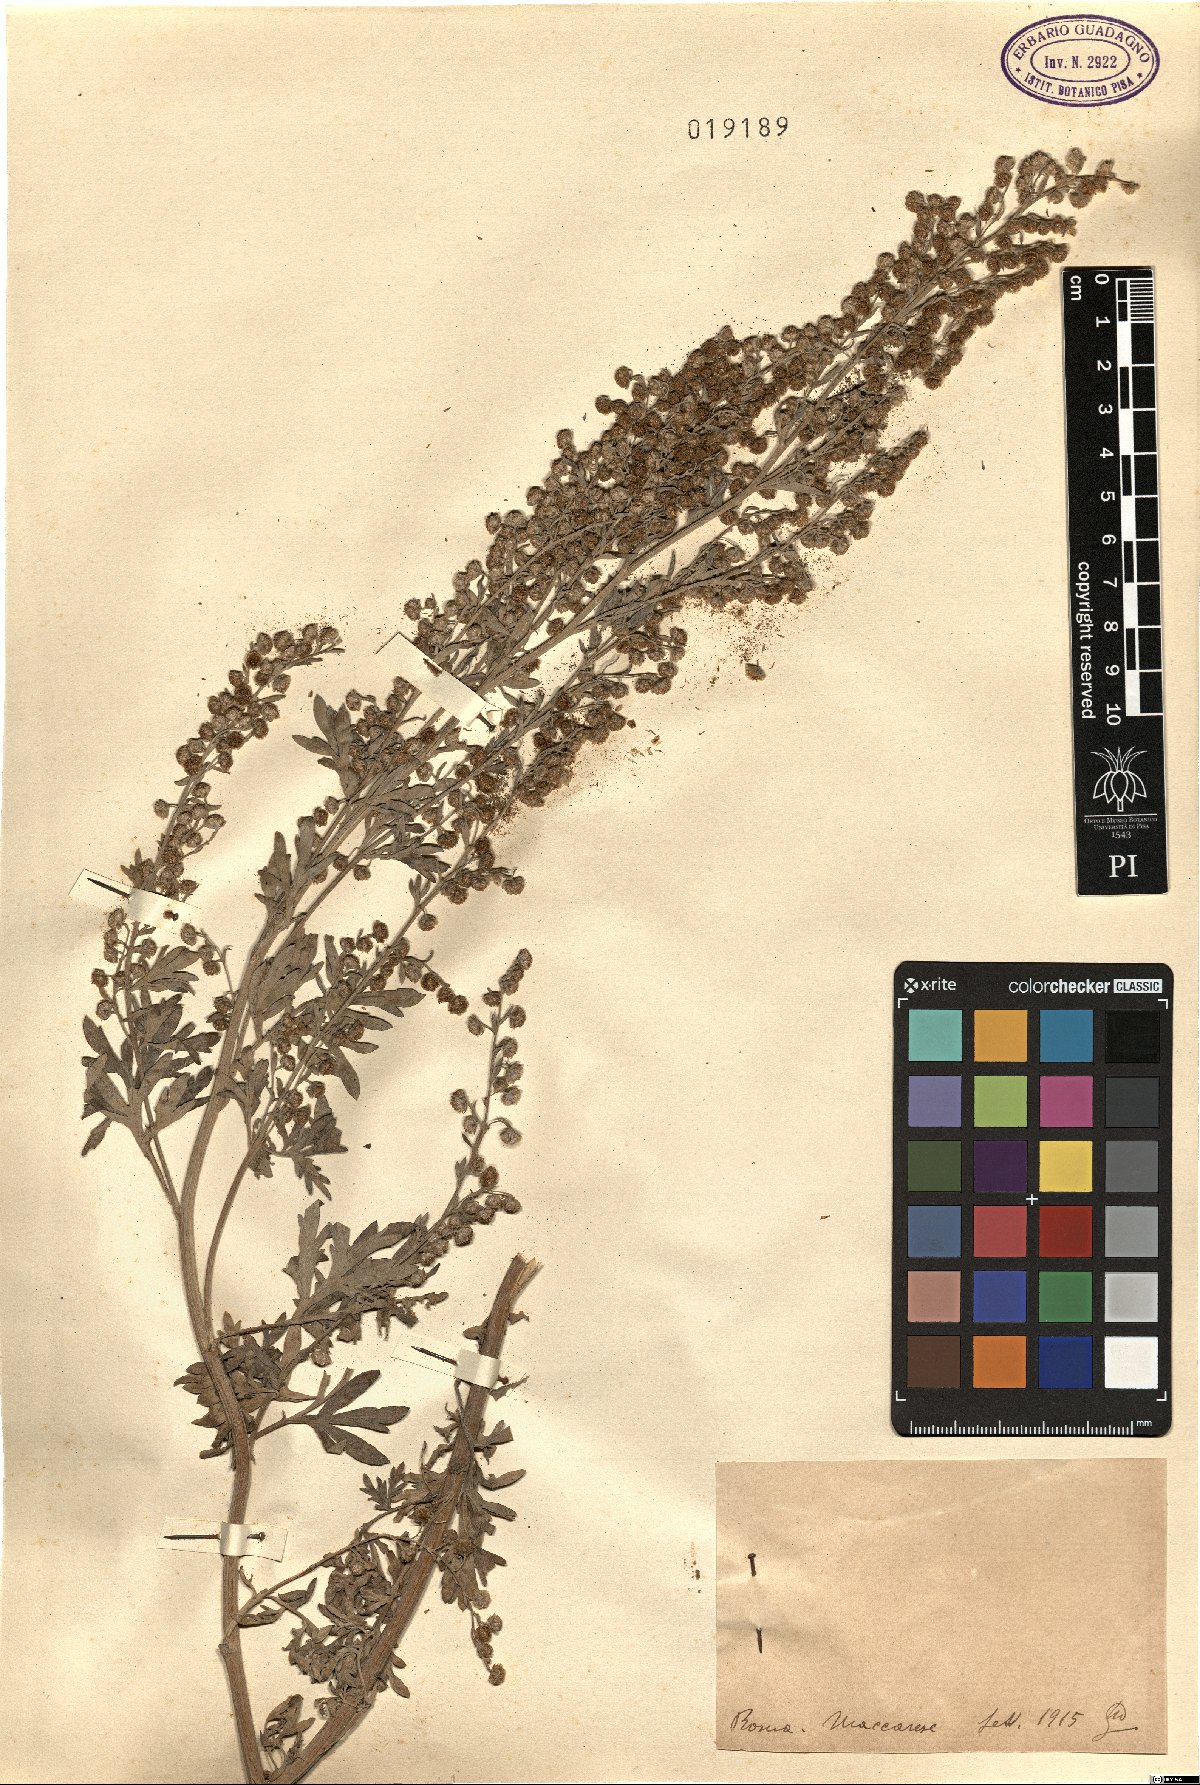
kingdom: Plantae
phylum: Tracheophyta
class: Magnoliopsida
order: Asterales
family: Asteraceae
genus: Artemisia
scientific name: Artemisia
